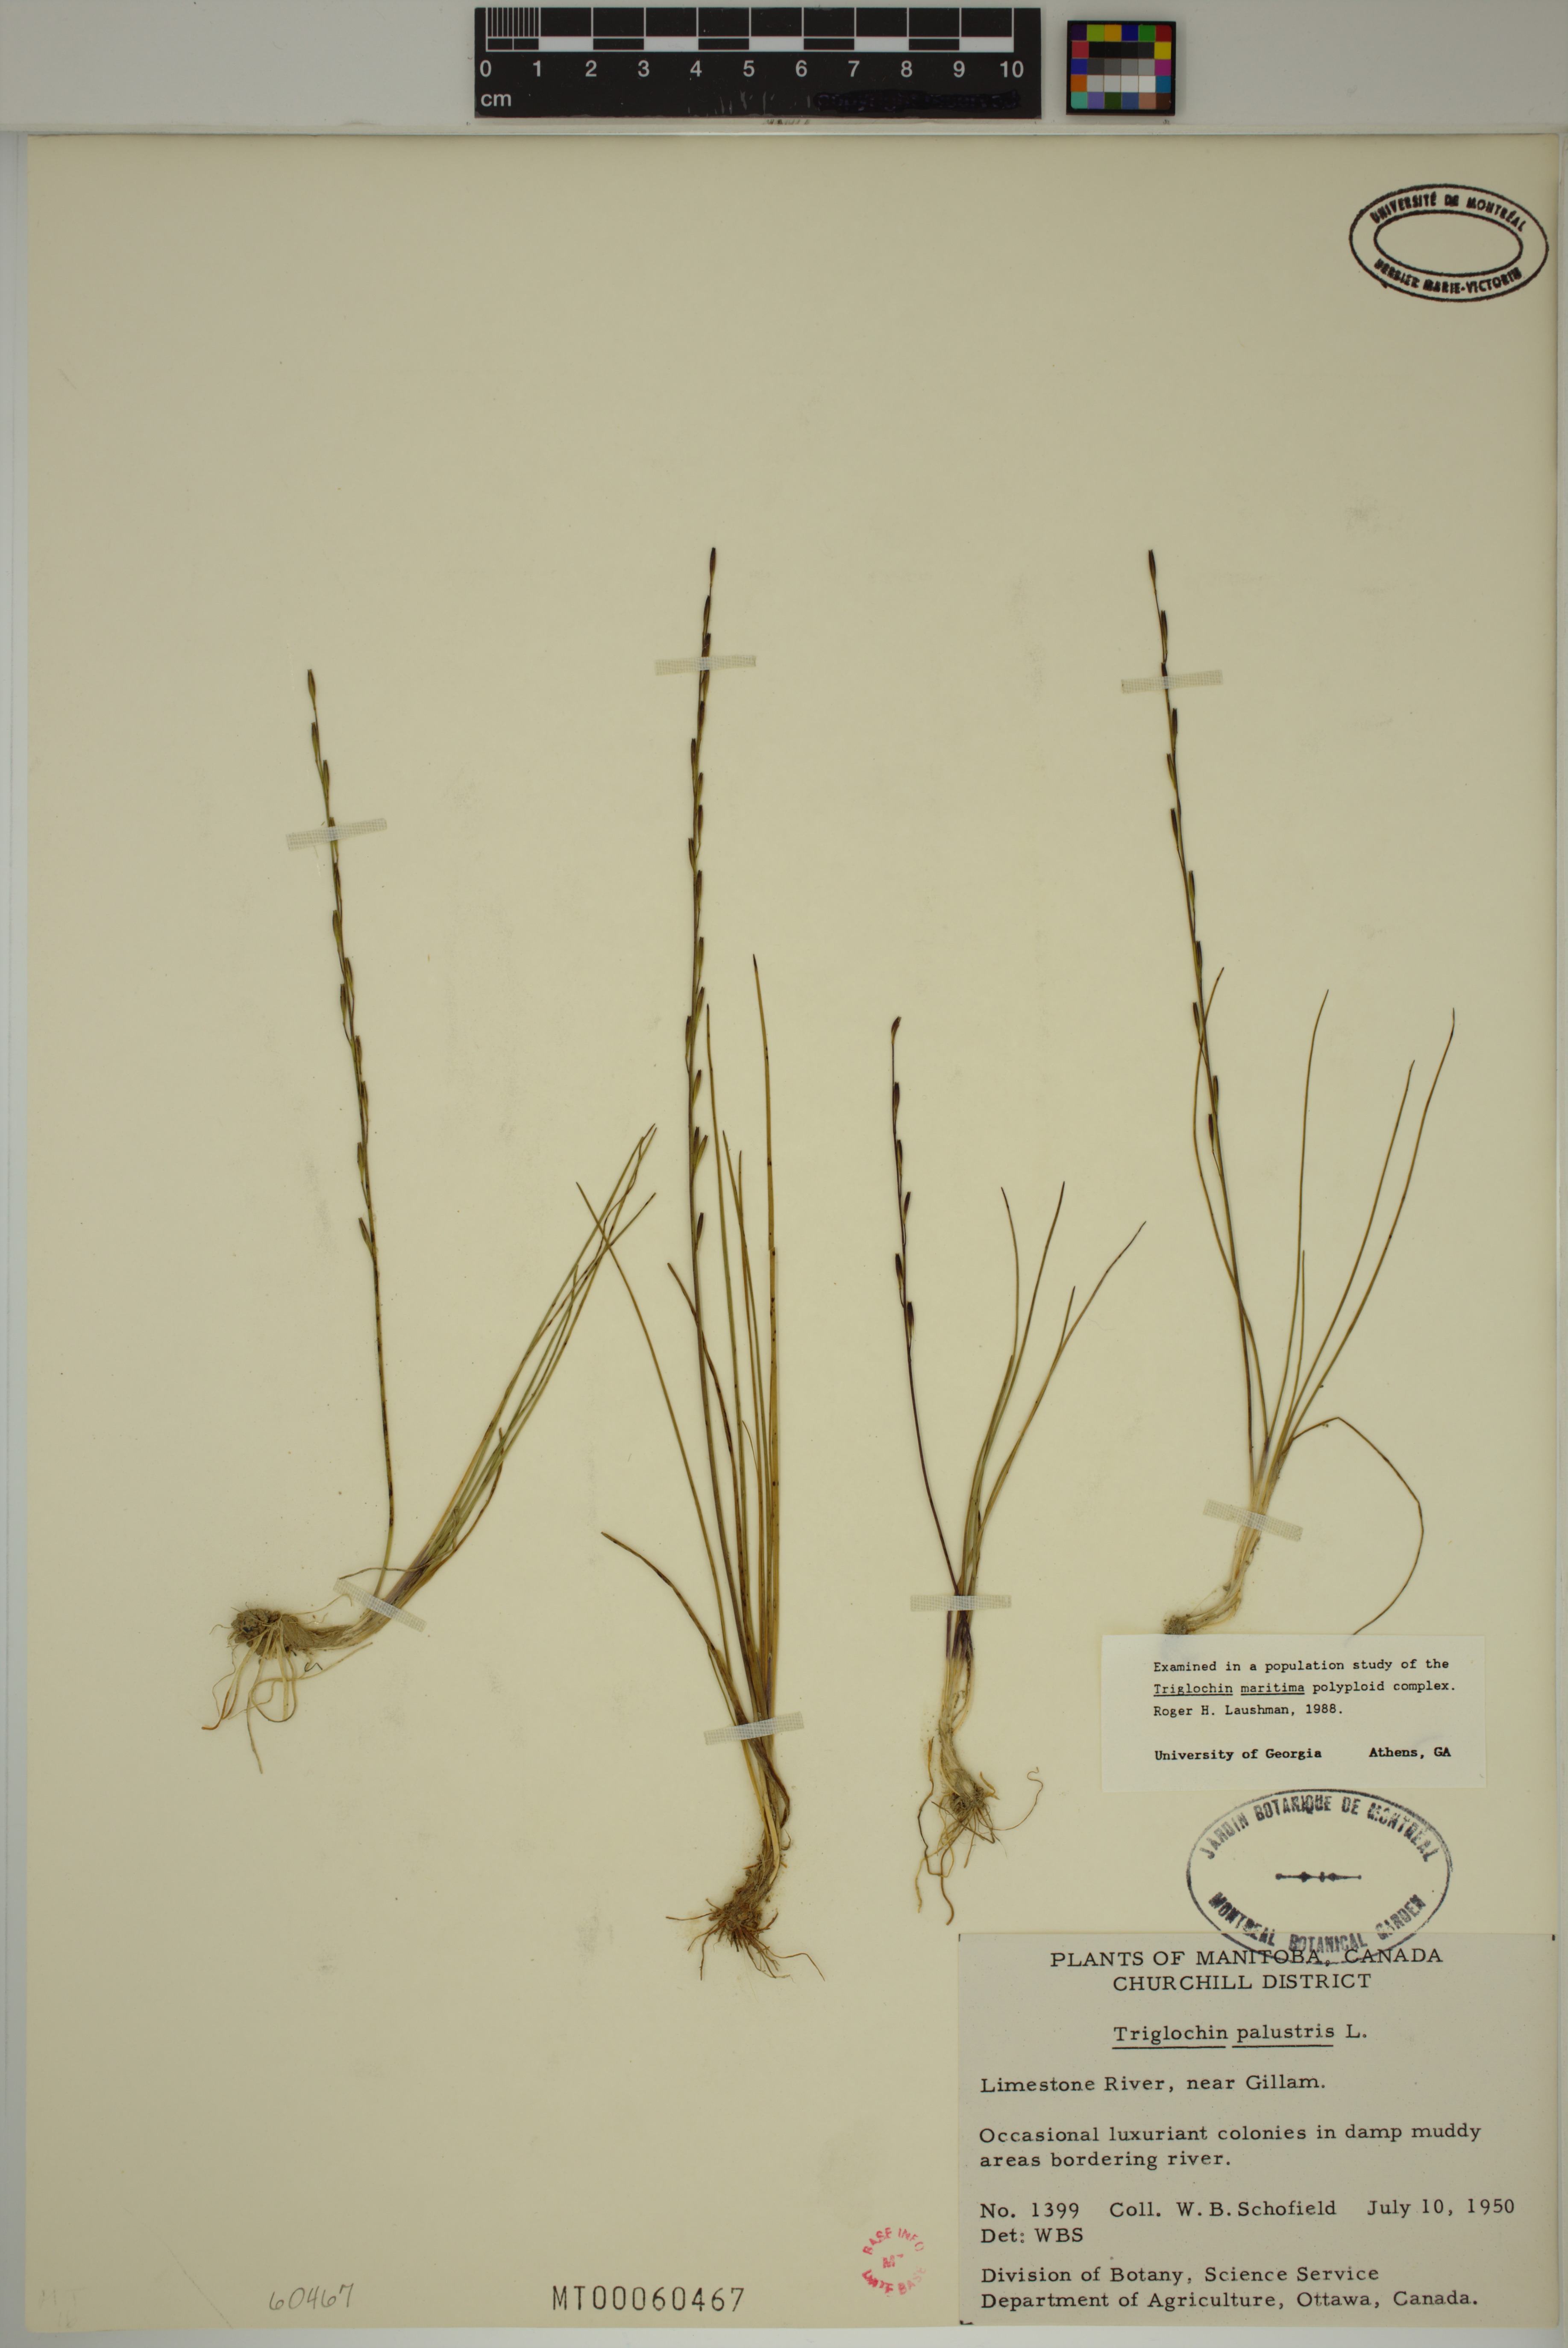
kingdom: Plantae
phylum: Tracheophyta
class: Liliopsida
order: Alismatales
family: Juncaginaceae
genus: Triglochin
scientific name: Triglochin palustris
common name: Marsh arrowgrass
